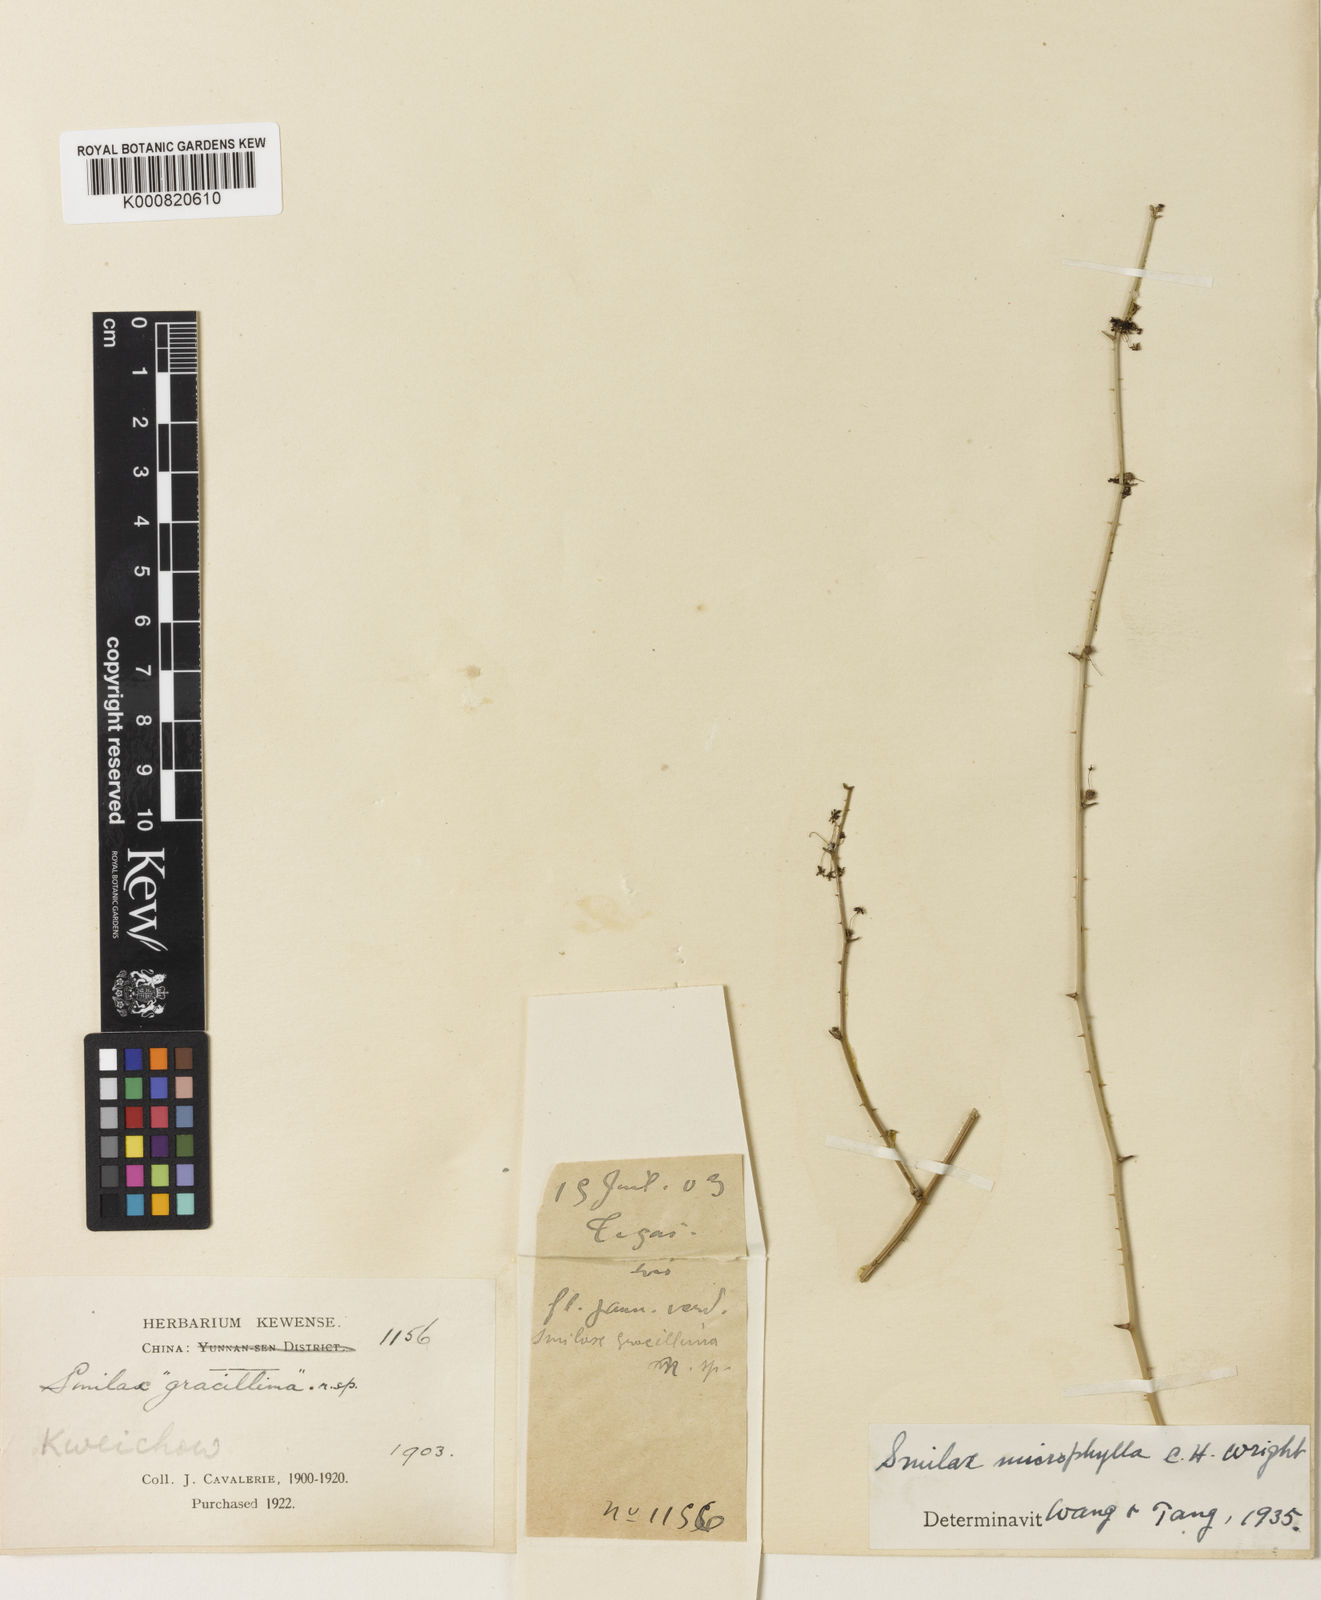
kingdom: Plantae
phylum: Tracheophyta
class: Liliopsida
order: Liliales
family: Smilacaceae
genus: Smilax
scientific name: Smilax microphylla
